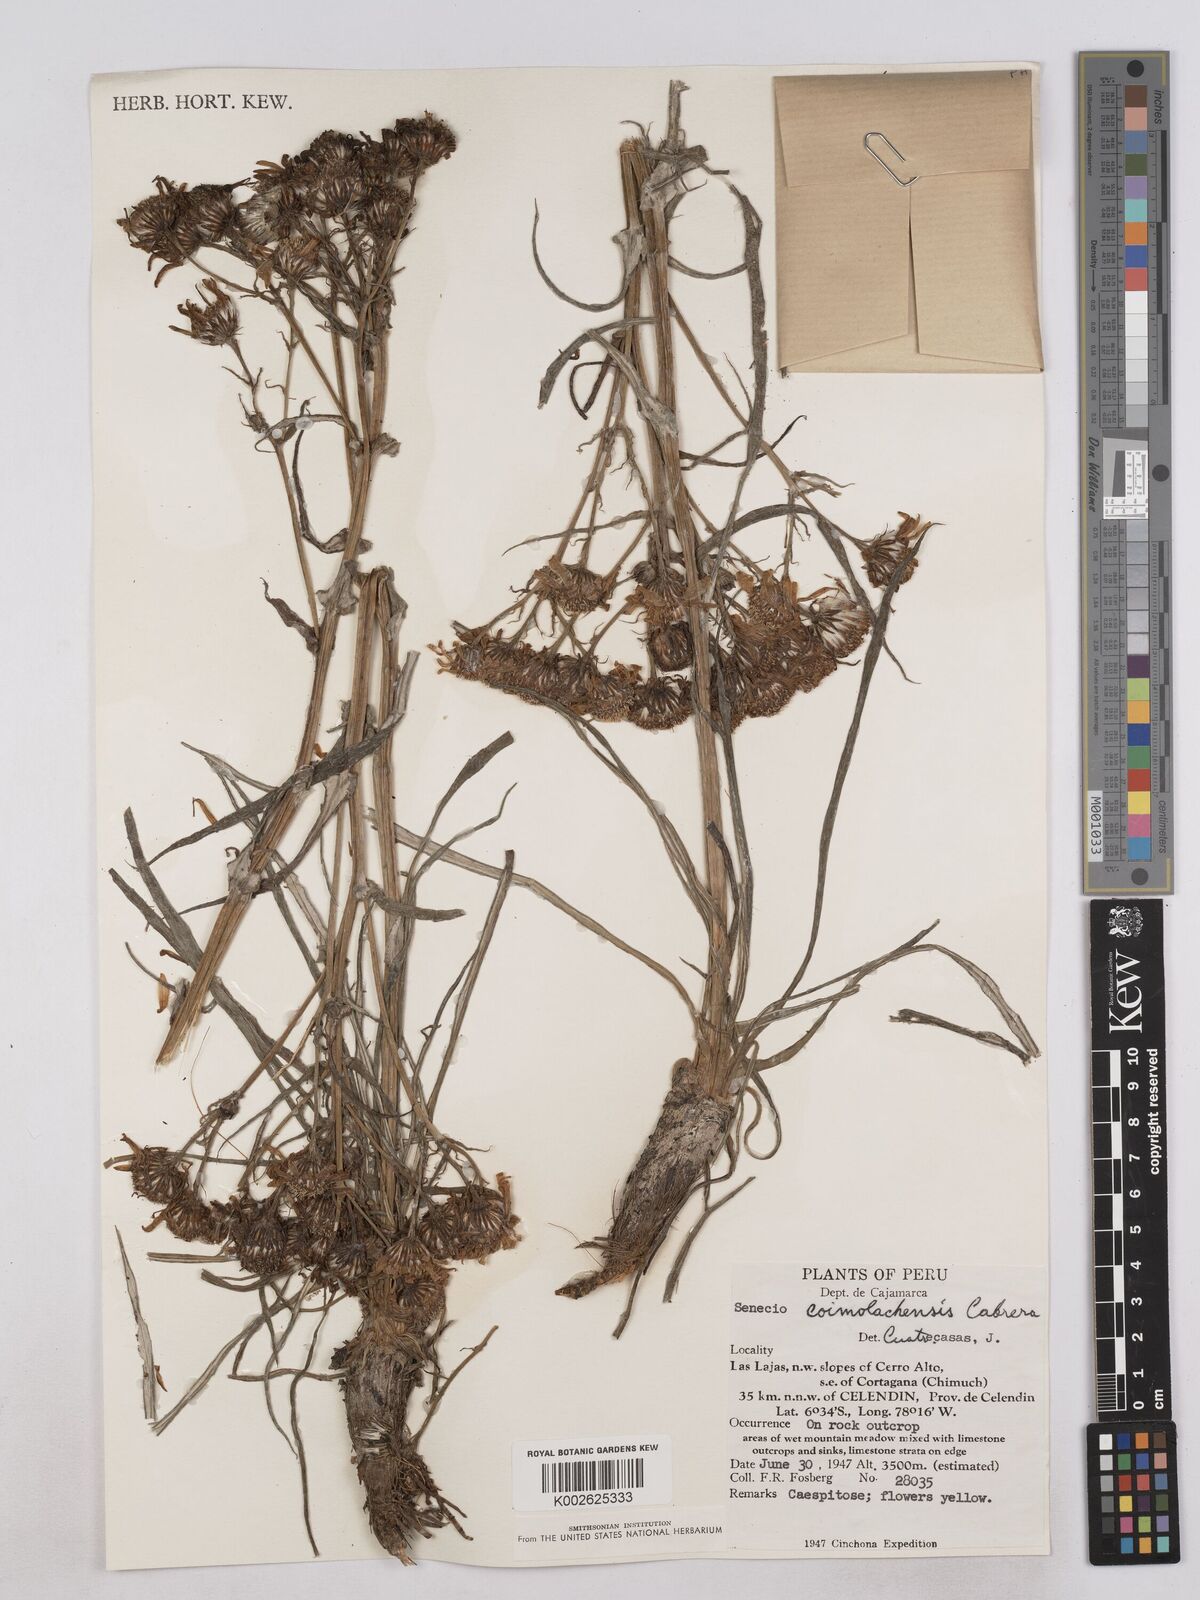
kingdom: Plantae
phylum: Tracheophyta
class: Magnoliopsida
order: Asterales
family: Asteraceae
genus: Senecio
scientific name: Senecio coymolachensis
